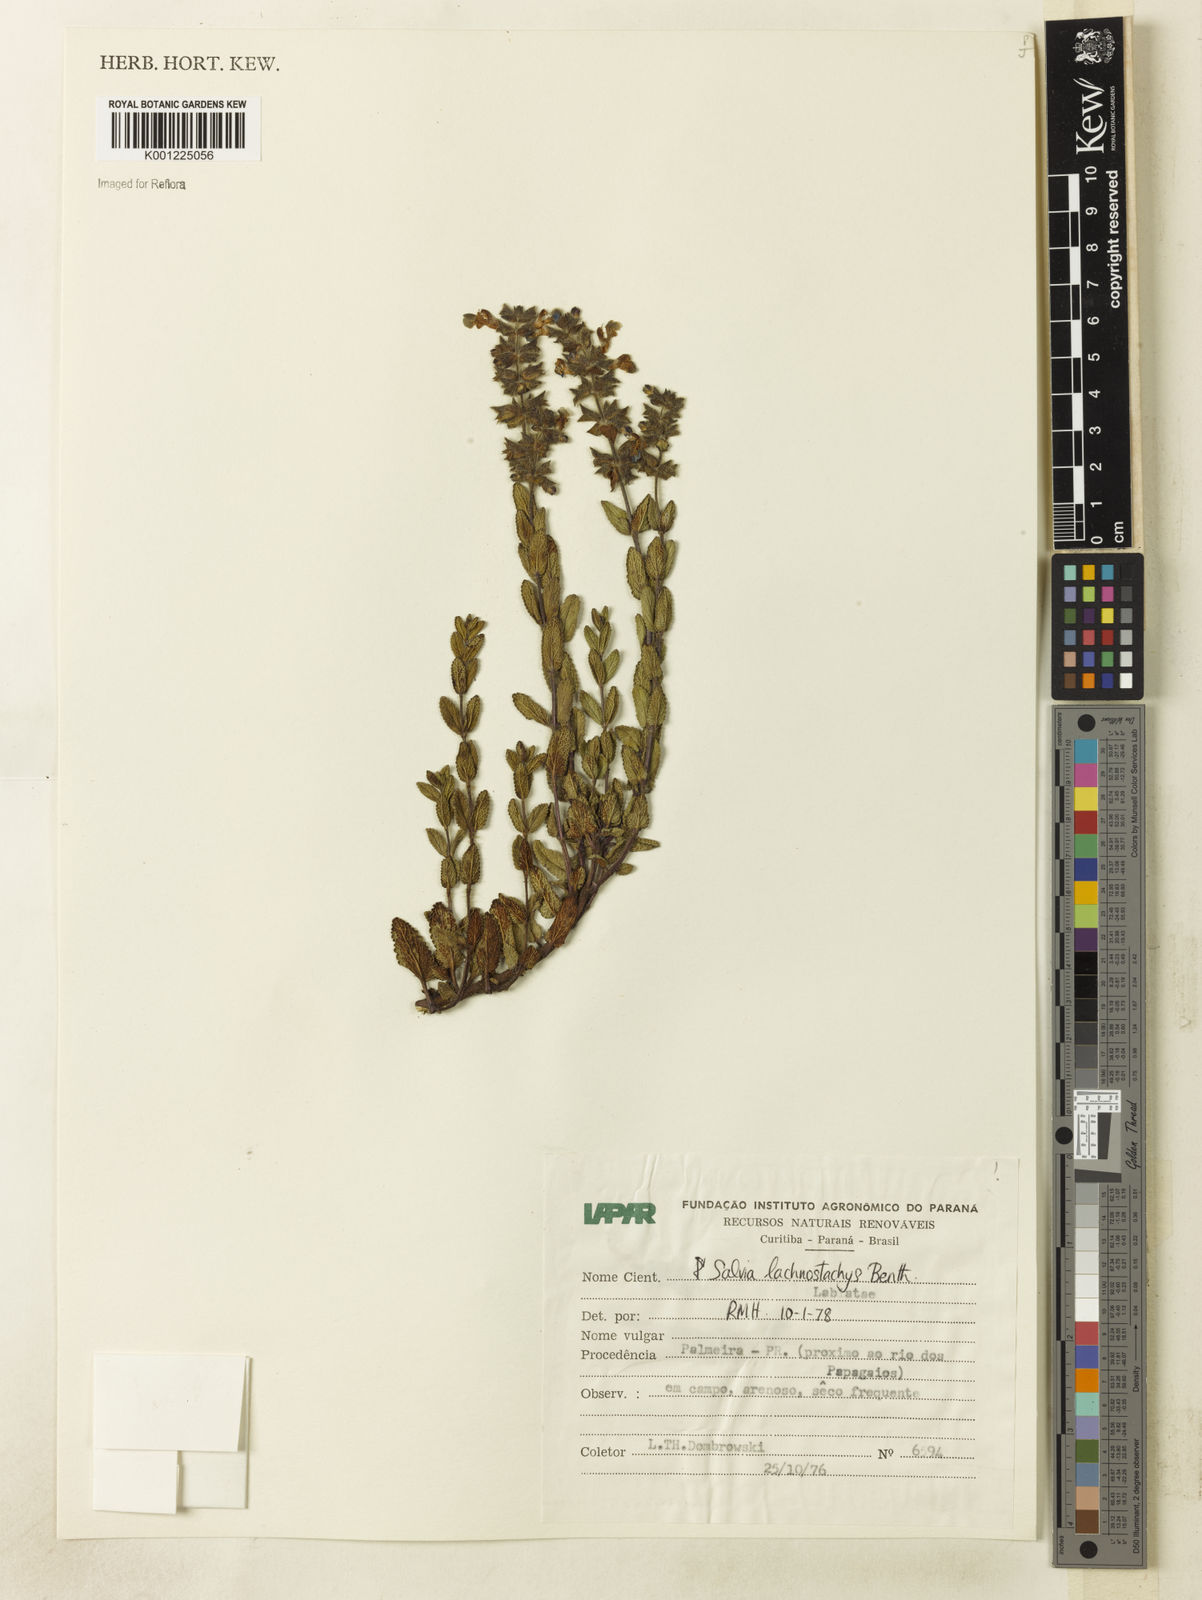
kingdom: Plantae
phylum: Tracheophyta
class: Magnoliopsida
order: Lamiales
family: Lamiaceae
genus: Salvia
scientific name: Salvia lachnostachys
